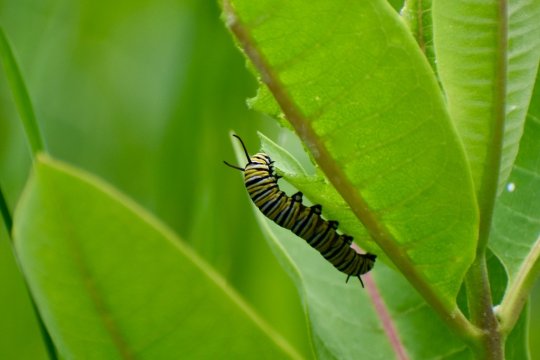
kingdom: Animalia
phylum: Arthropoda
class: Insecta
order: Lepidoptera
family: Nymphalidae
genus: Danaus
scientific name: Danaus plexippus
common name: Monarch
